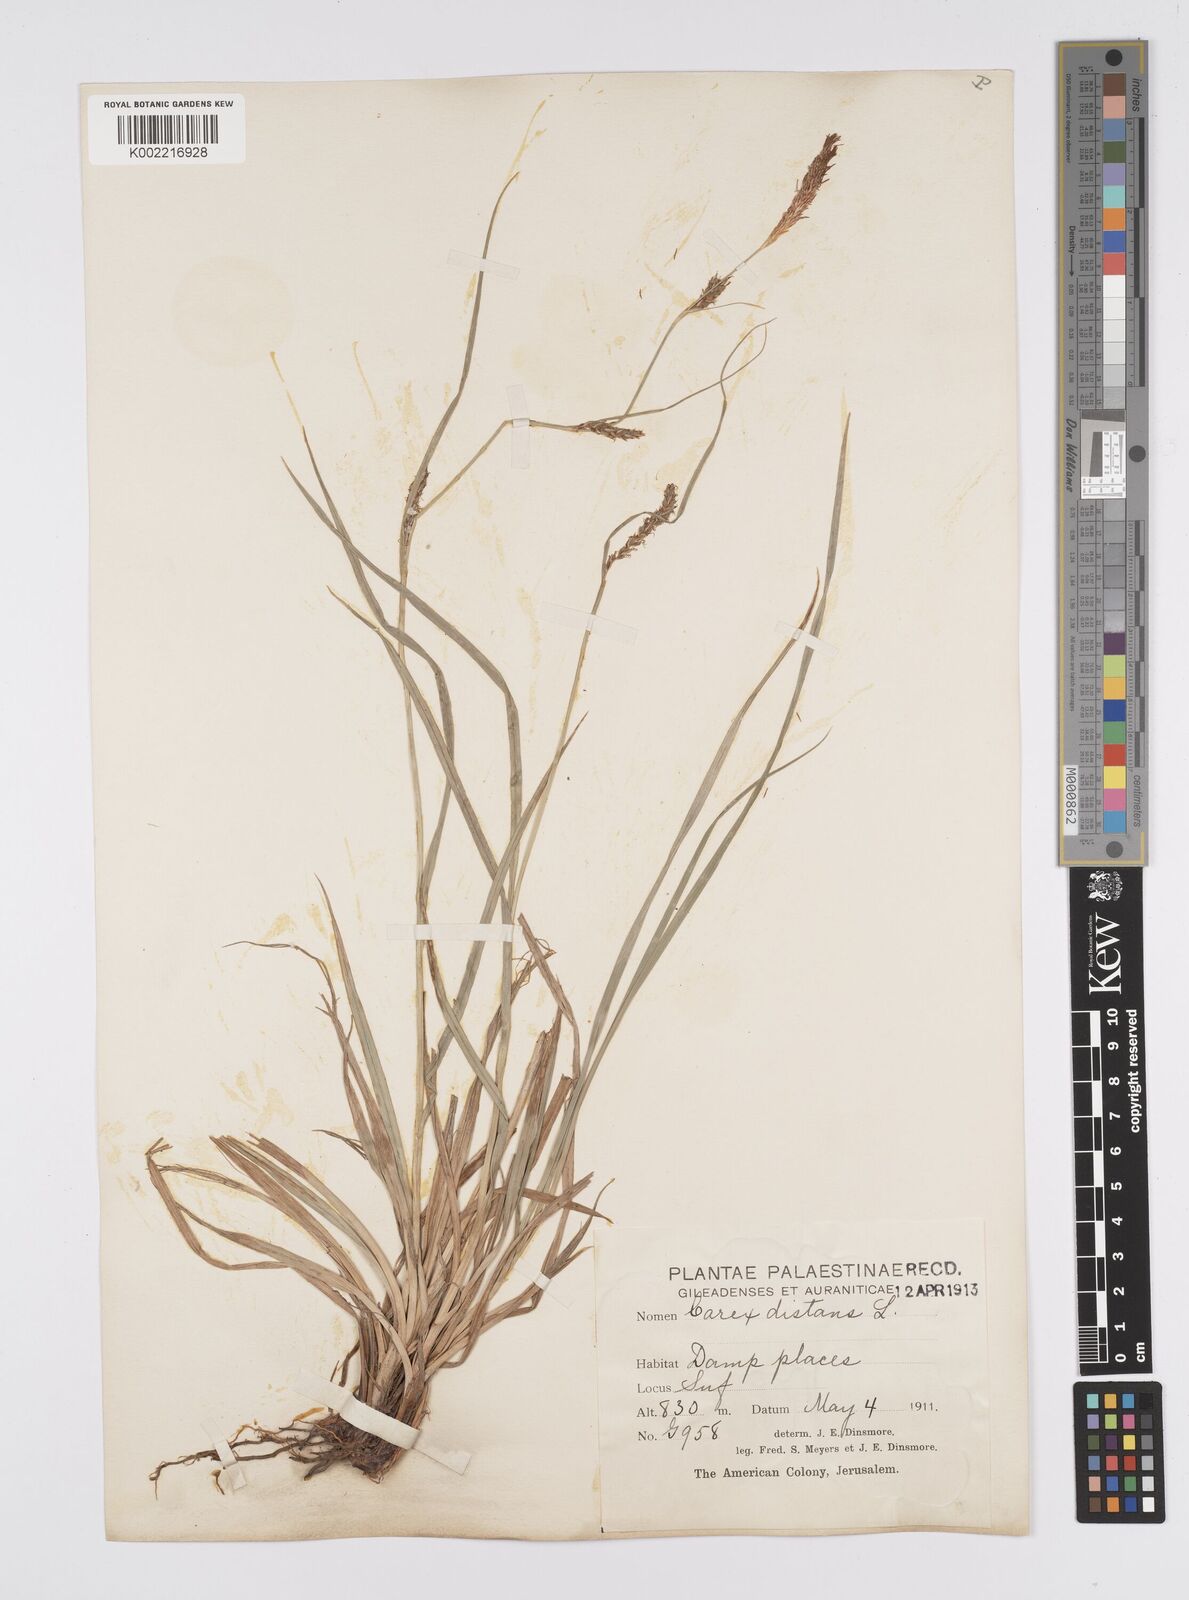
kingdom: Plantae
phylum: Tracheophyta
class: Liliopsida
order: Poales
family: Cyperaceae
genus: Carex
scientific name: Carex distans
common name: Distant sedge
